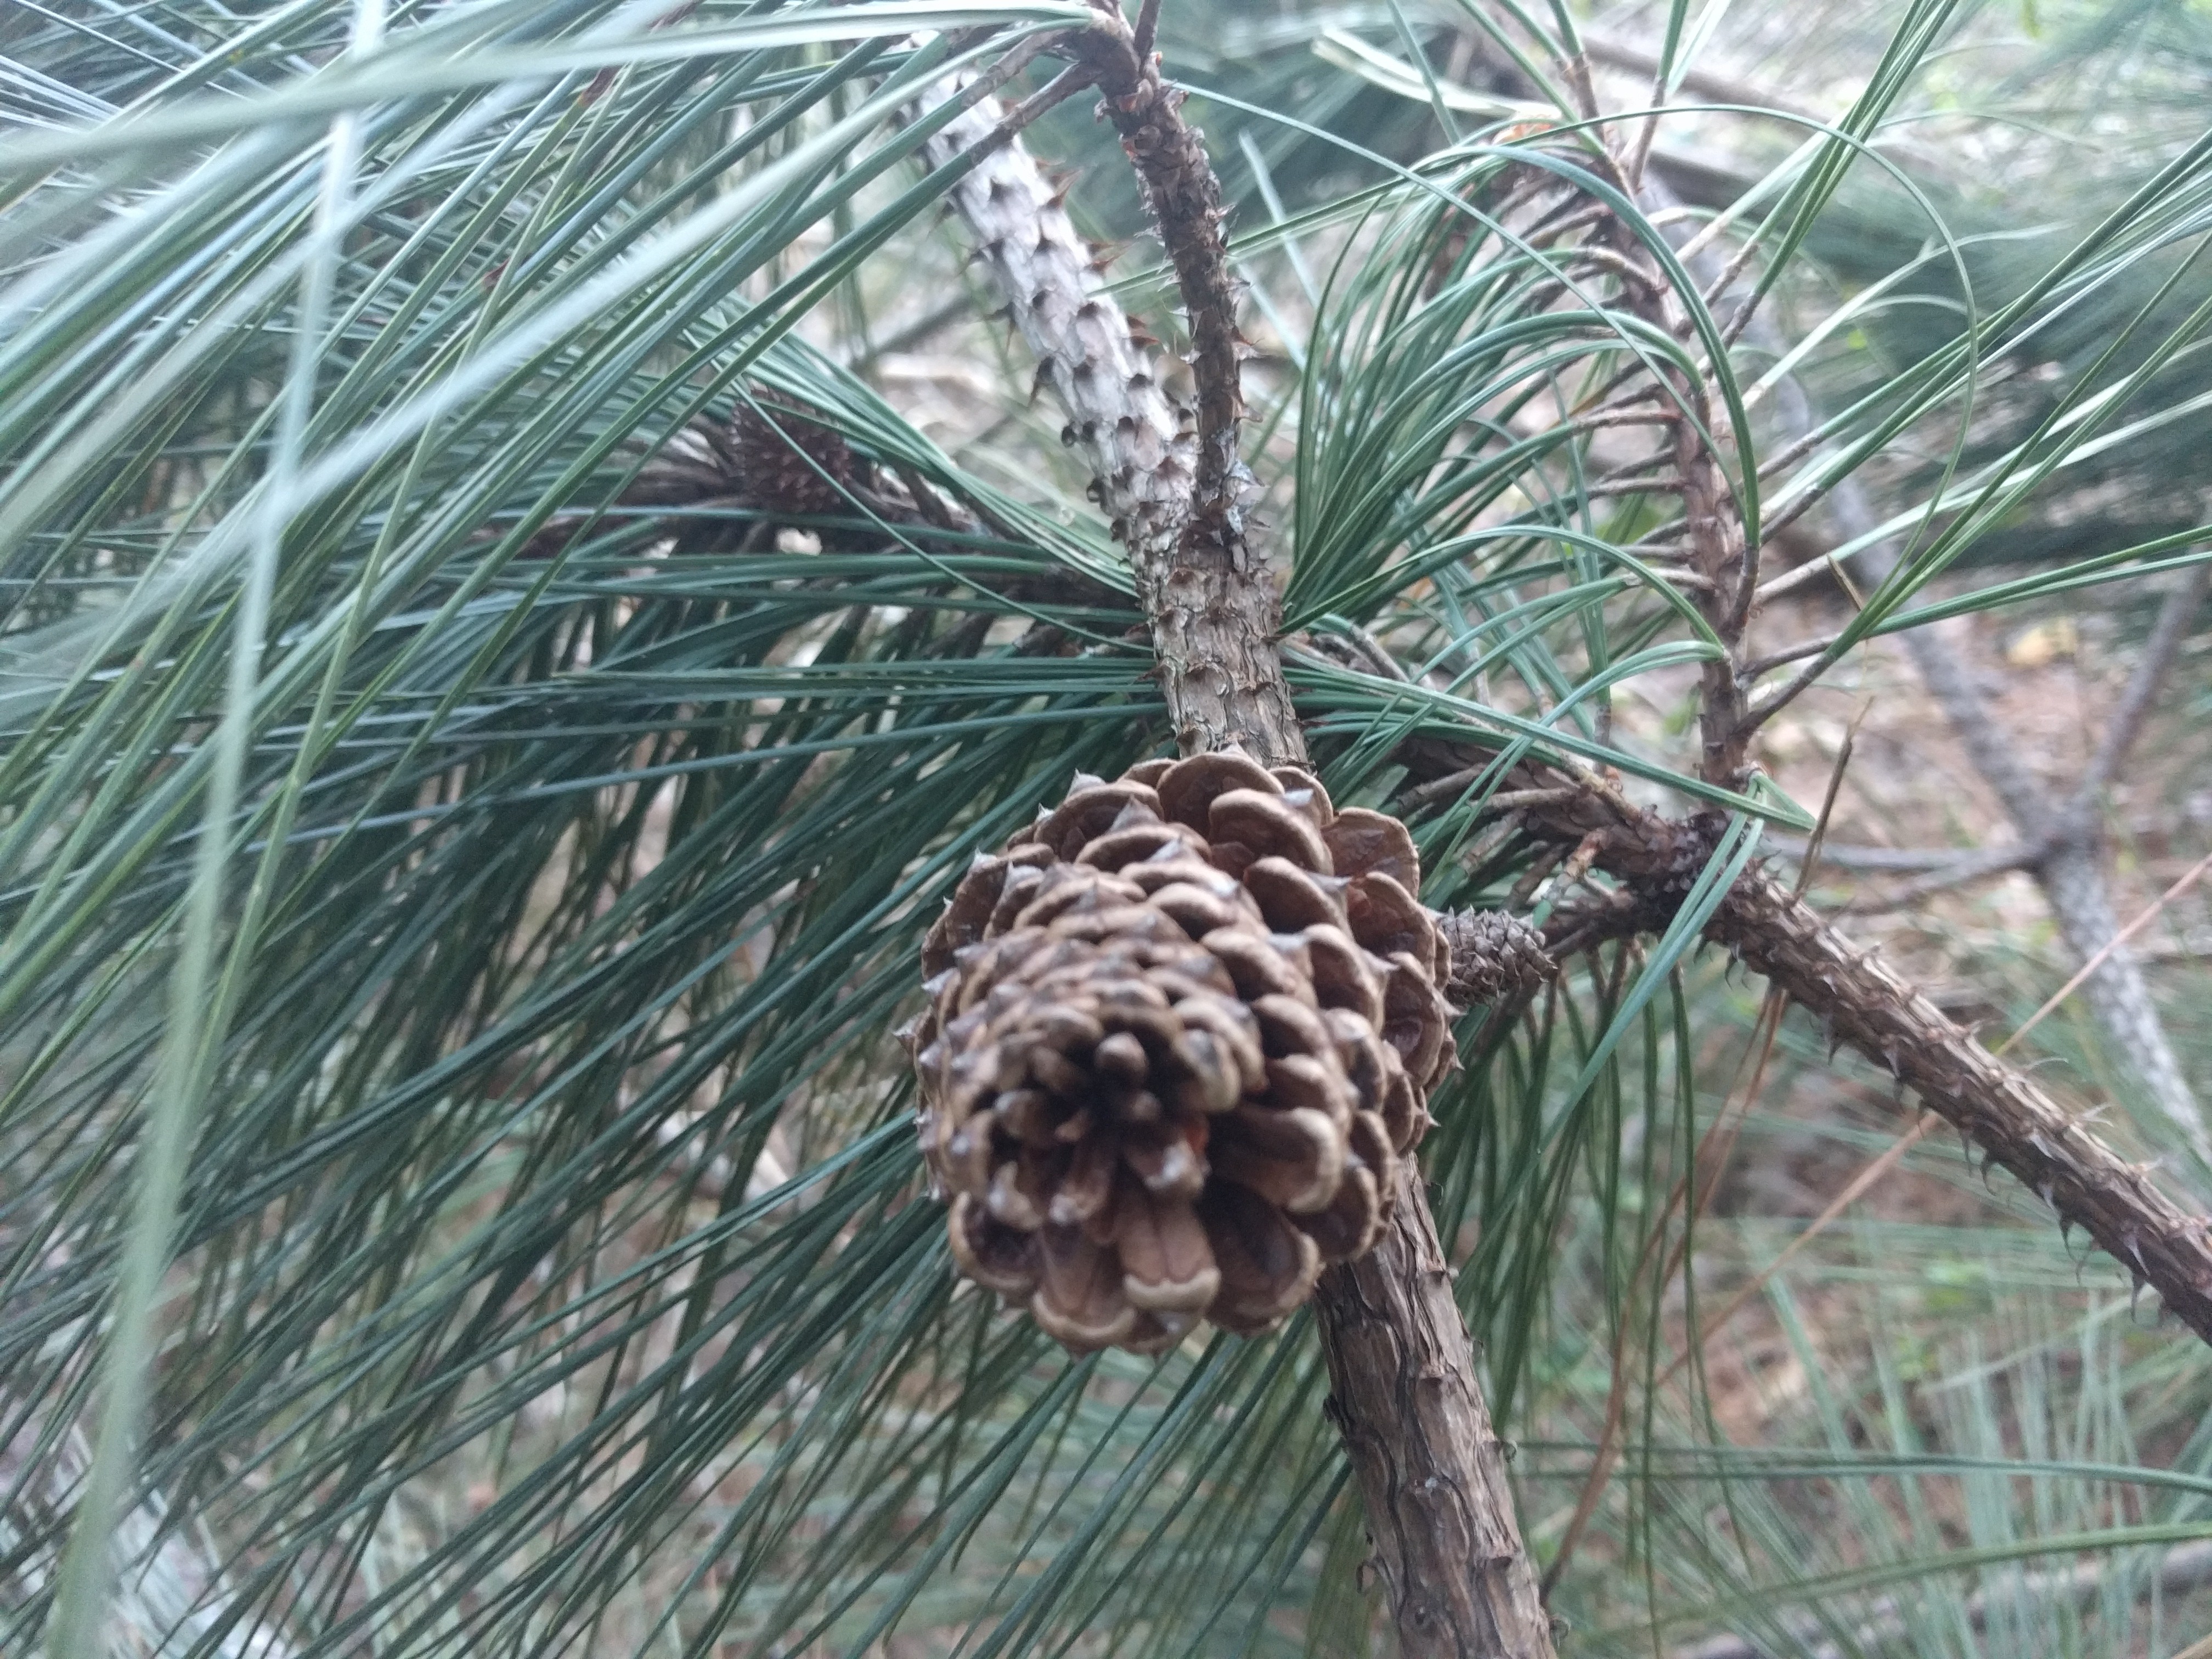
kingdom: Plantae
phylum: Tracheophyta
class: Pinopsida
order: Pinales
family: Pinaceae
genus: Pinus
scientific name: Pinus taeda
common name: Loblolly
